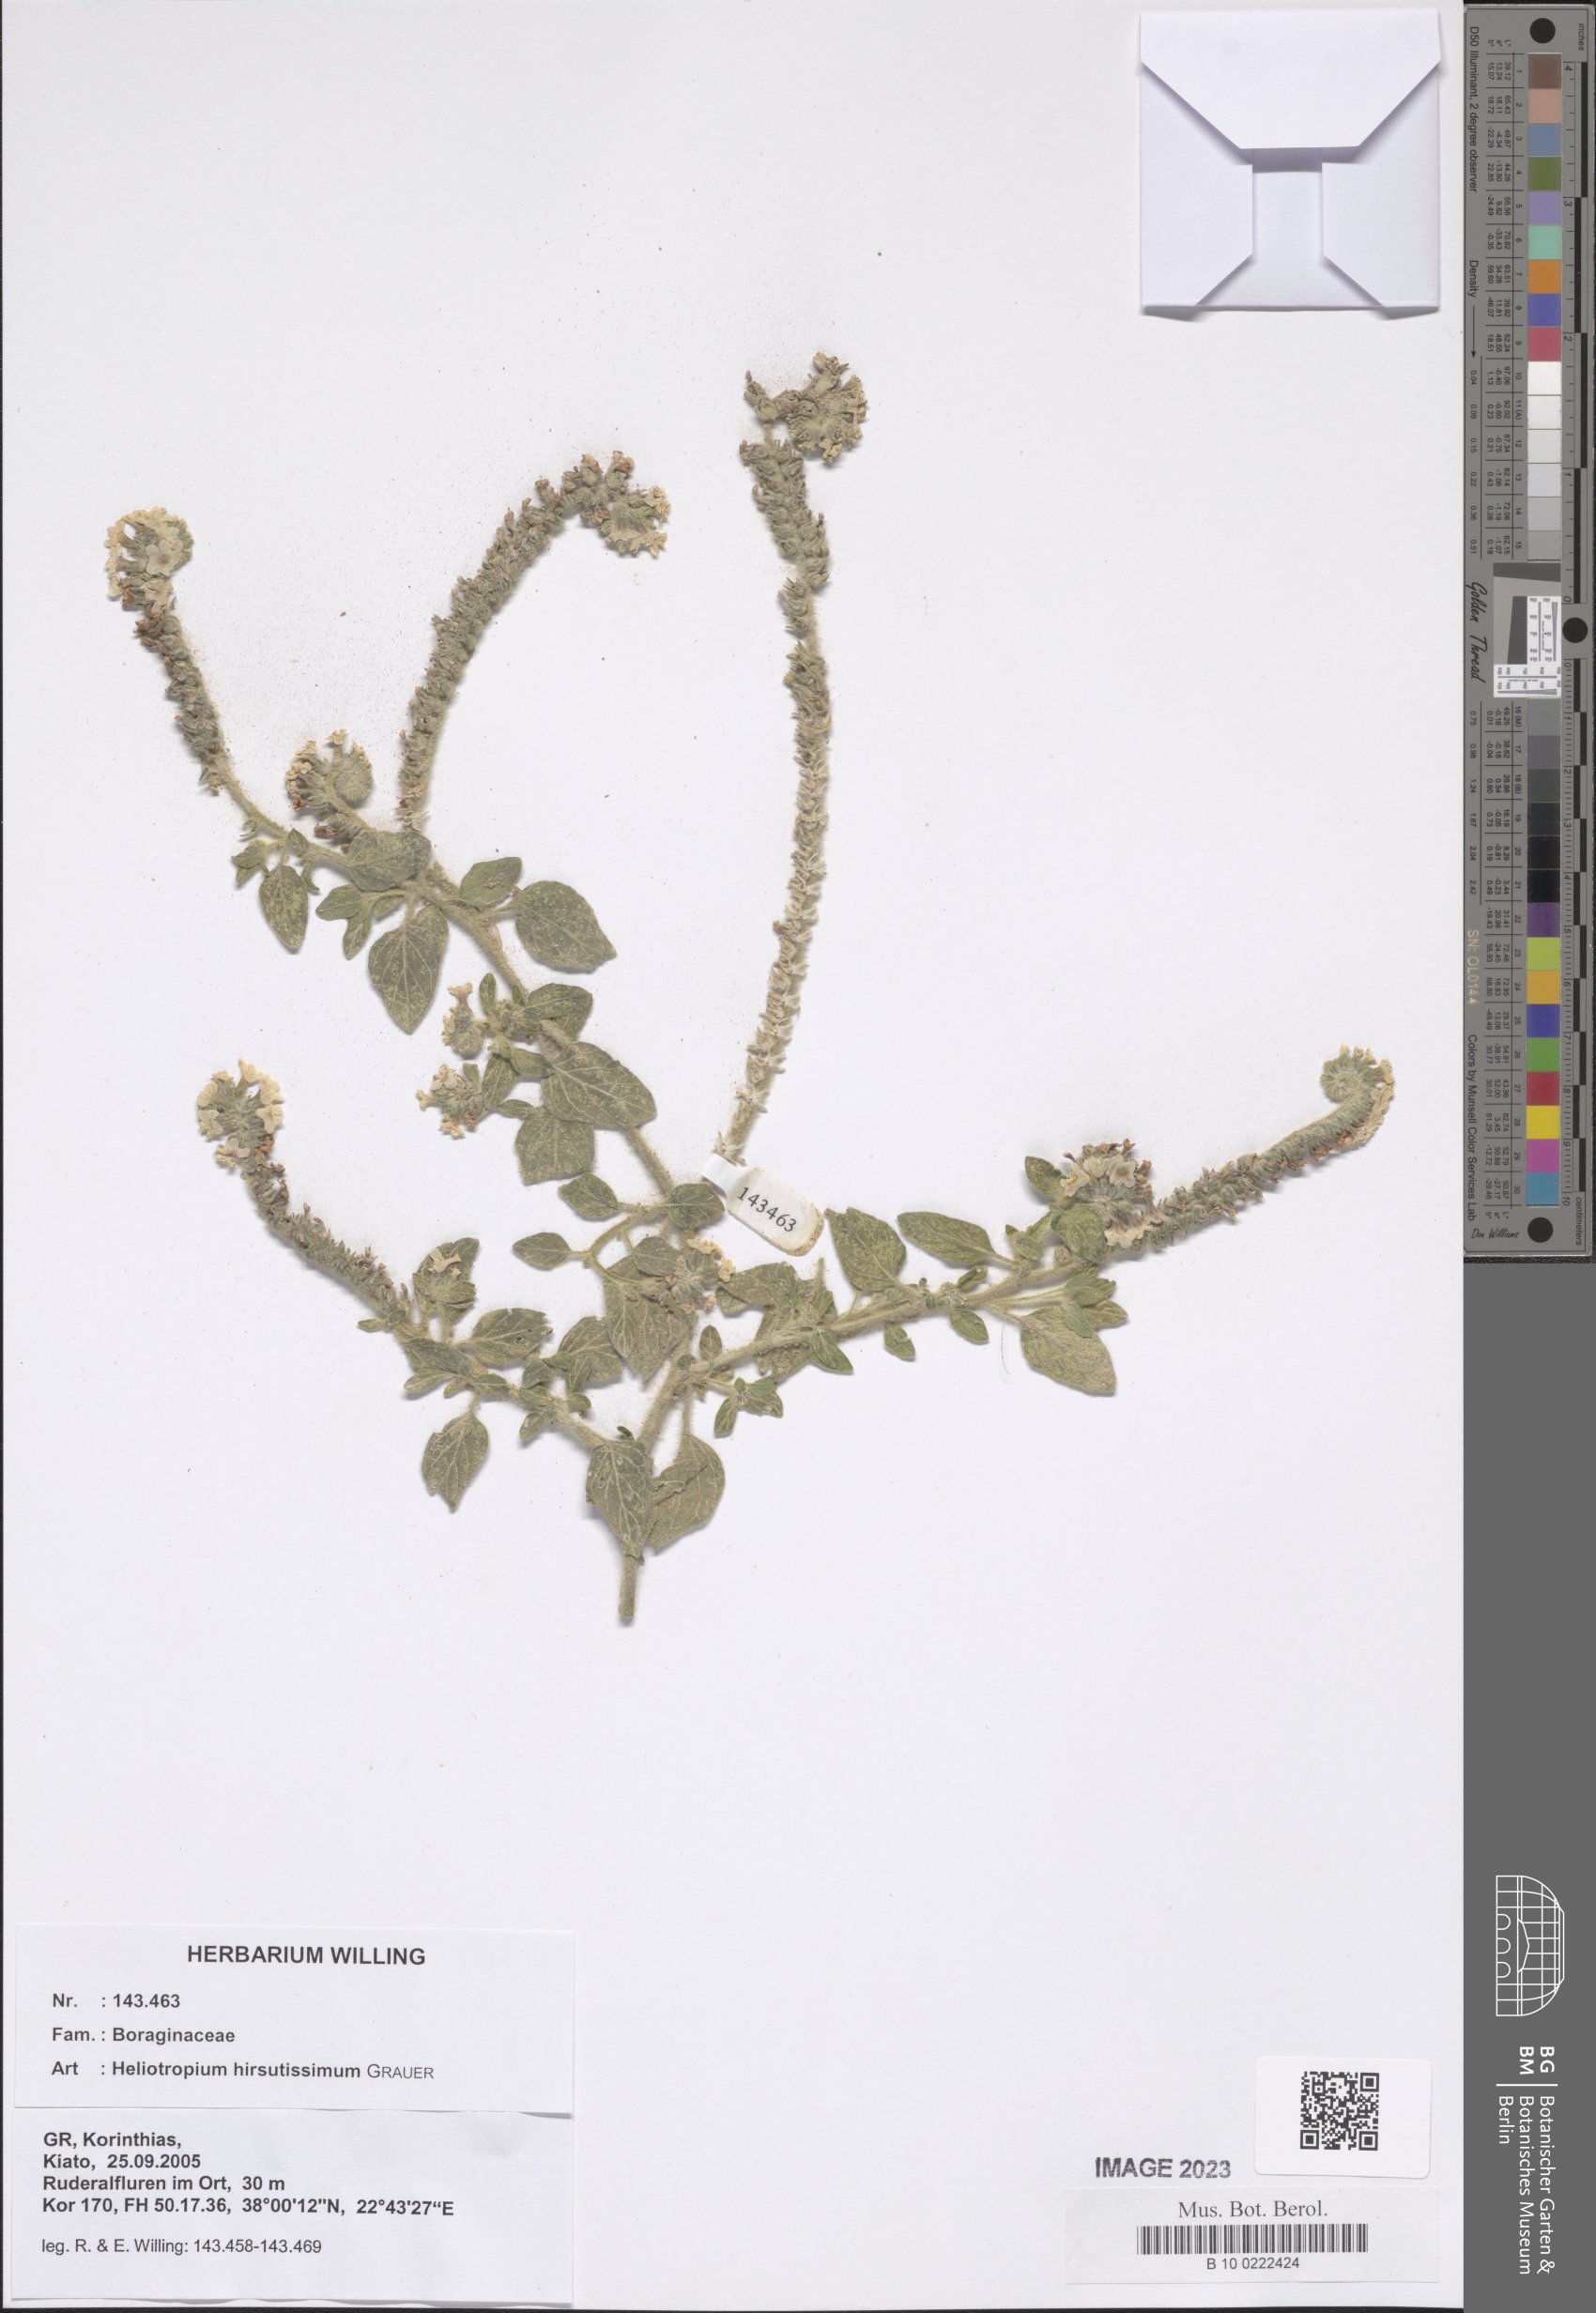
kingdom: Plantae
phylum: Tracheophyta
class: Magnoliopsida
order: Boraginales
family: Heliotropiaceae
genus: Heliotropium
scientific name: Heliotropium hirsutissimum
